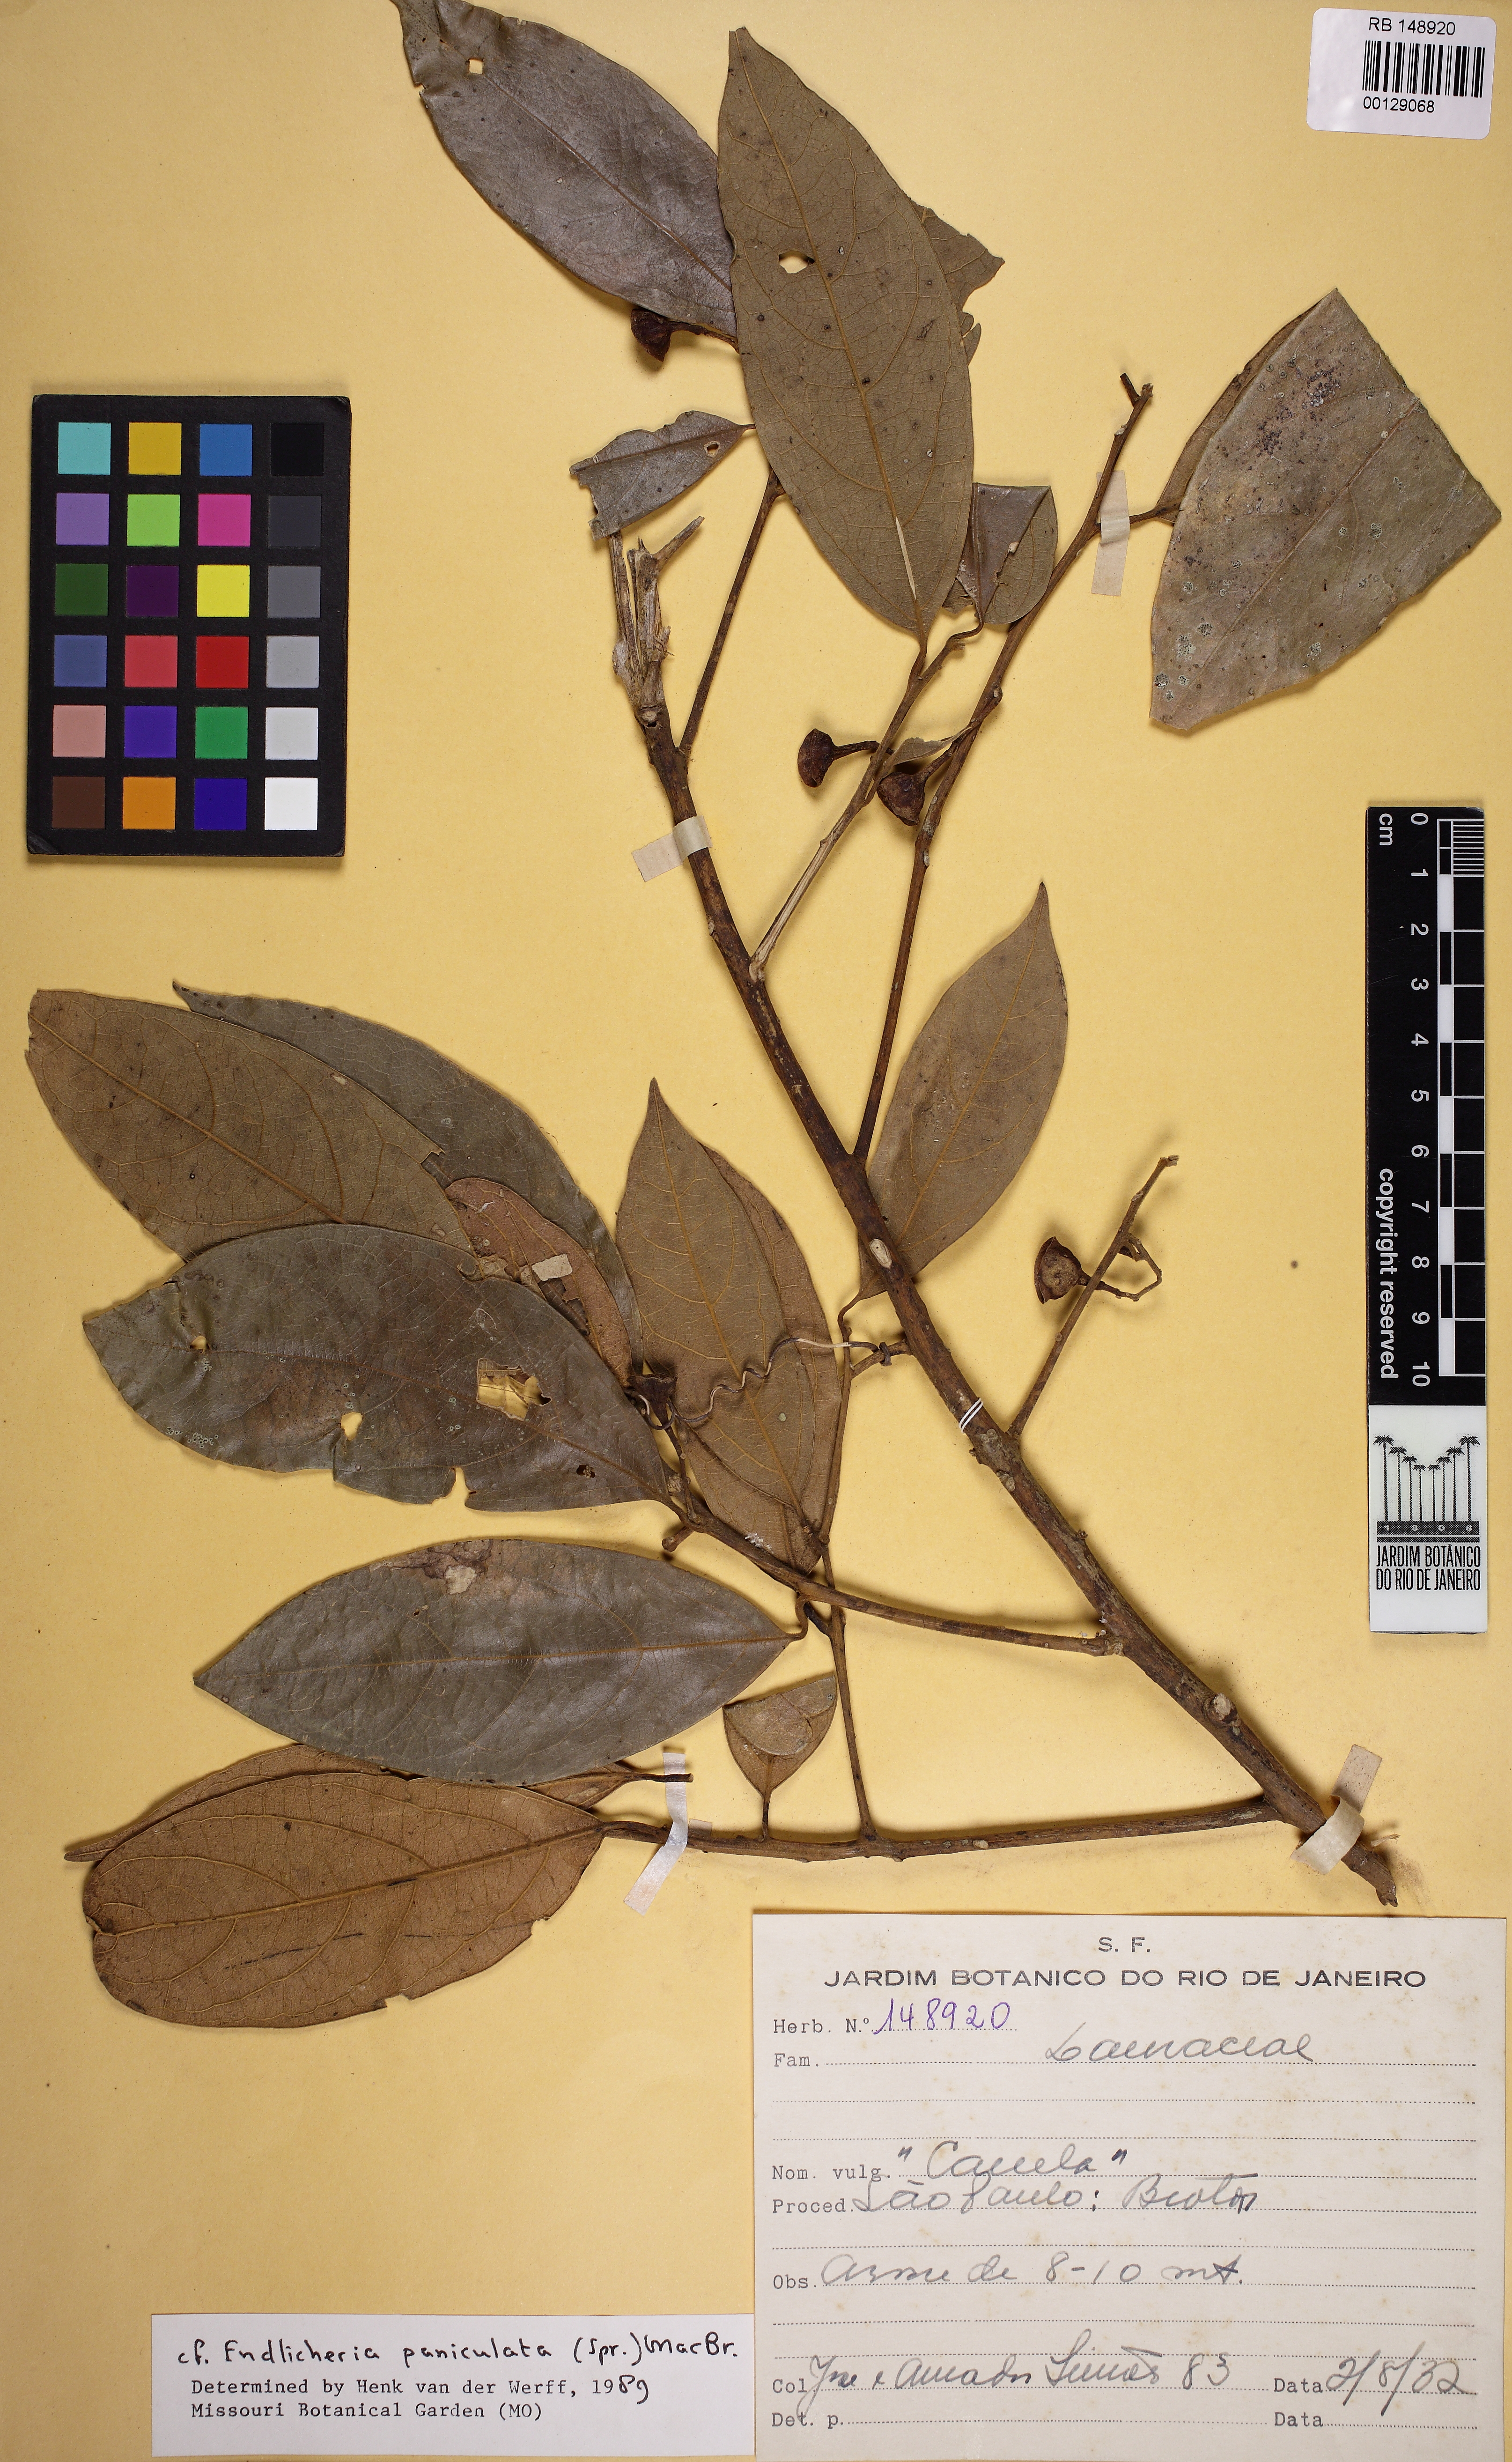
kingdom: Plantae
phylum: Tracheophyta
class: Magnoliopsida
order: Laurales
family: Lauraceae
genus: Endlicheria
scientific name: Endlicheria paniculata
